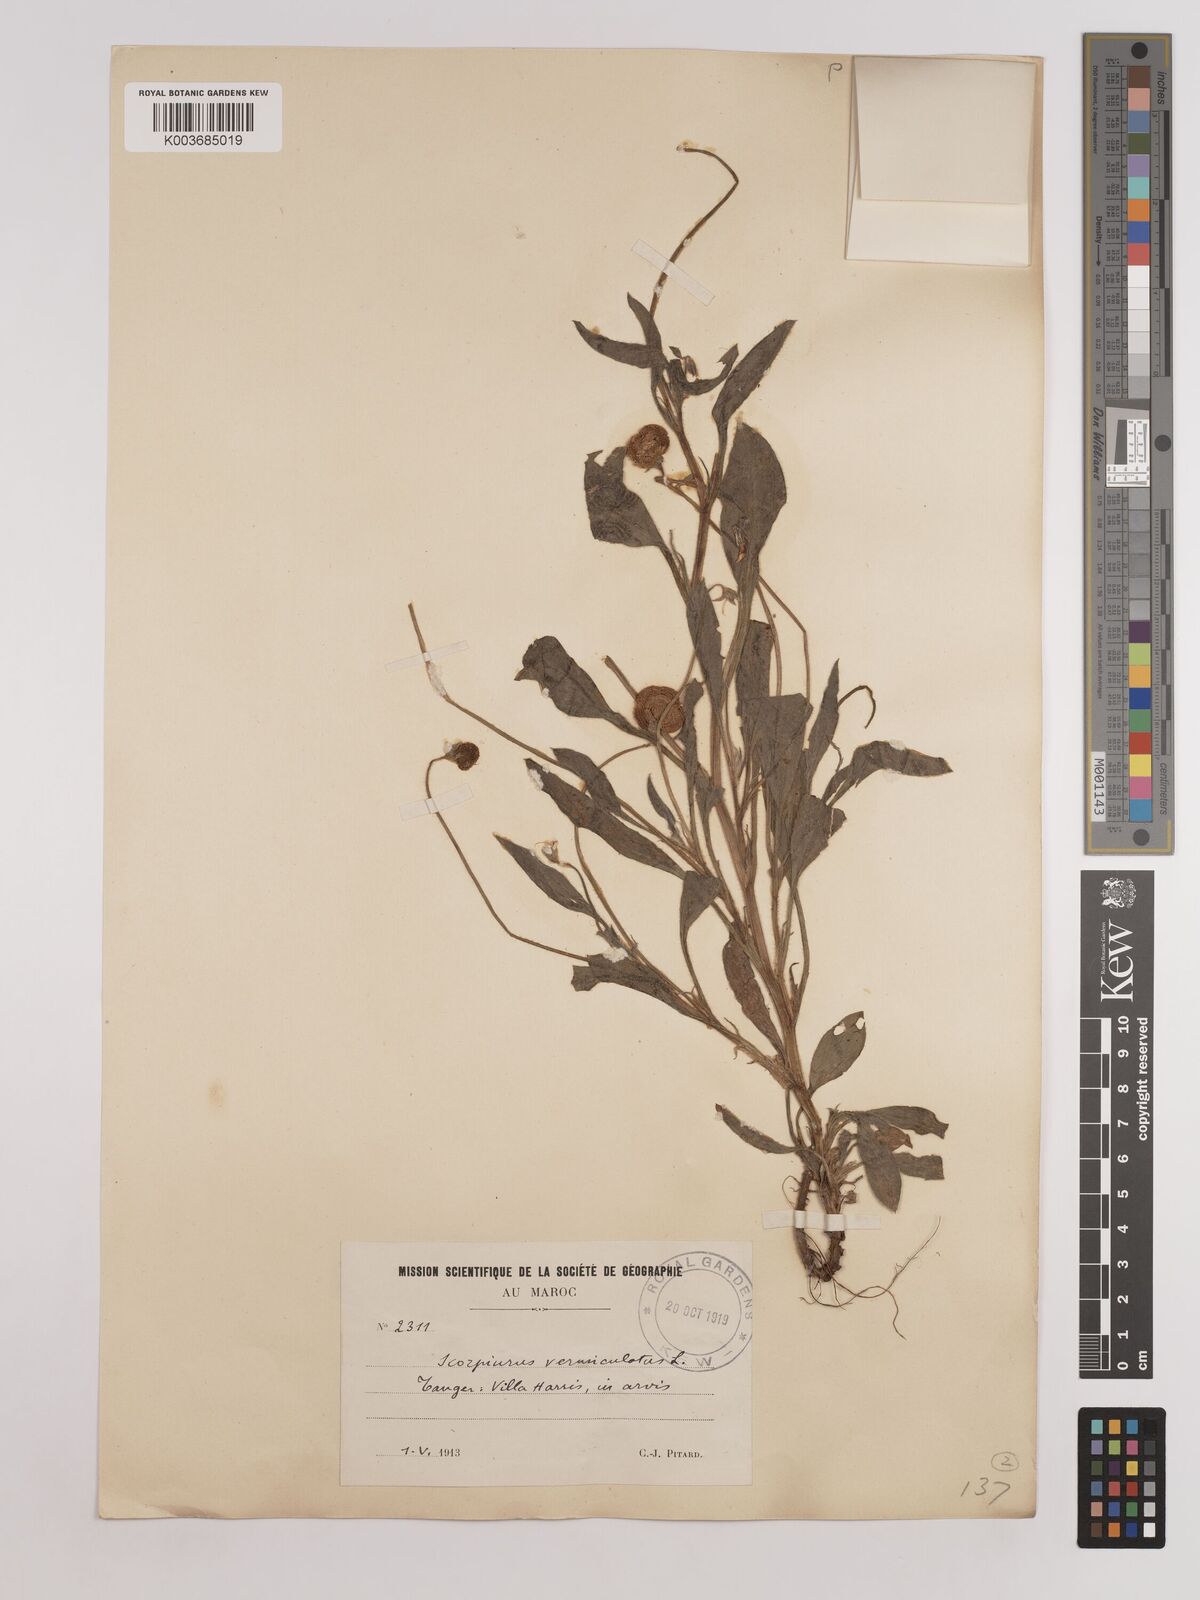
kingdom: Plantae
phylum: Tracheophyta
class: Magnoliopsida
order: Fabales
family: Fabaceae
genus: Scorpiurus
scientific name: Scorpiurus vermiculatus
